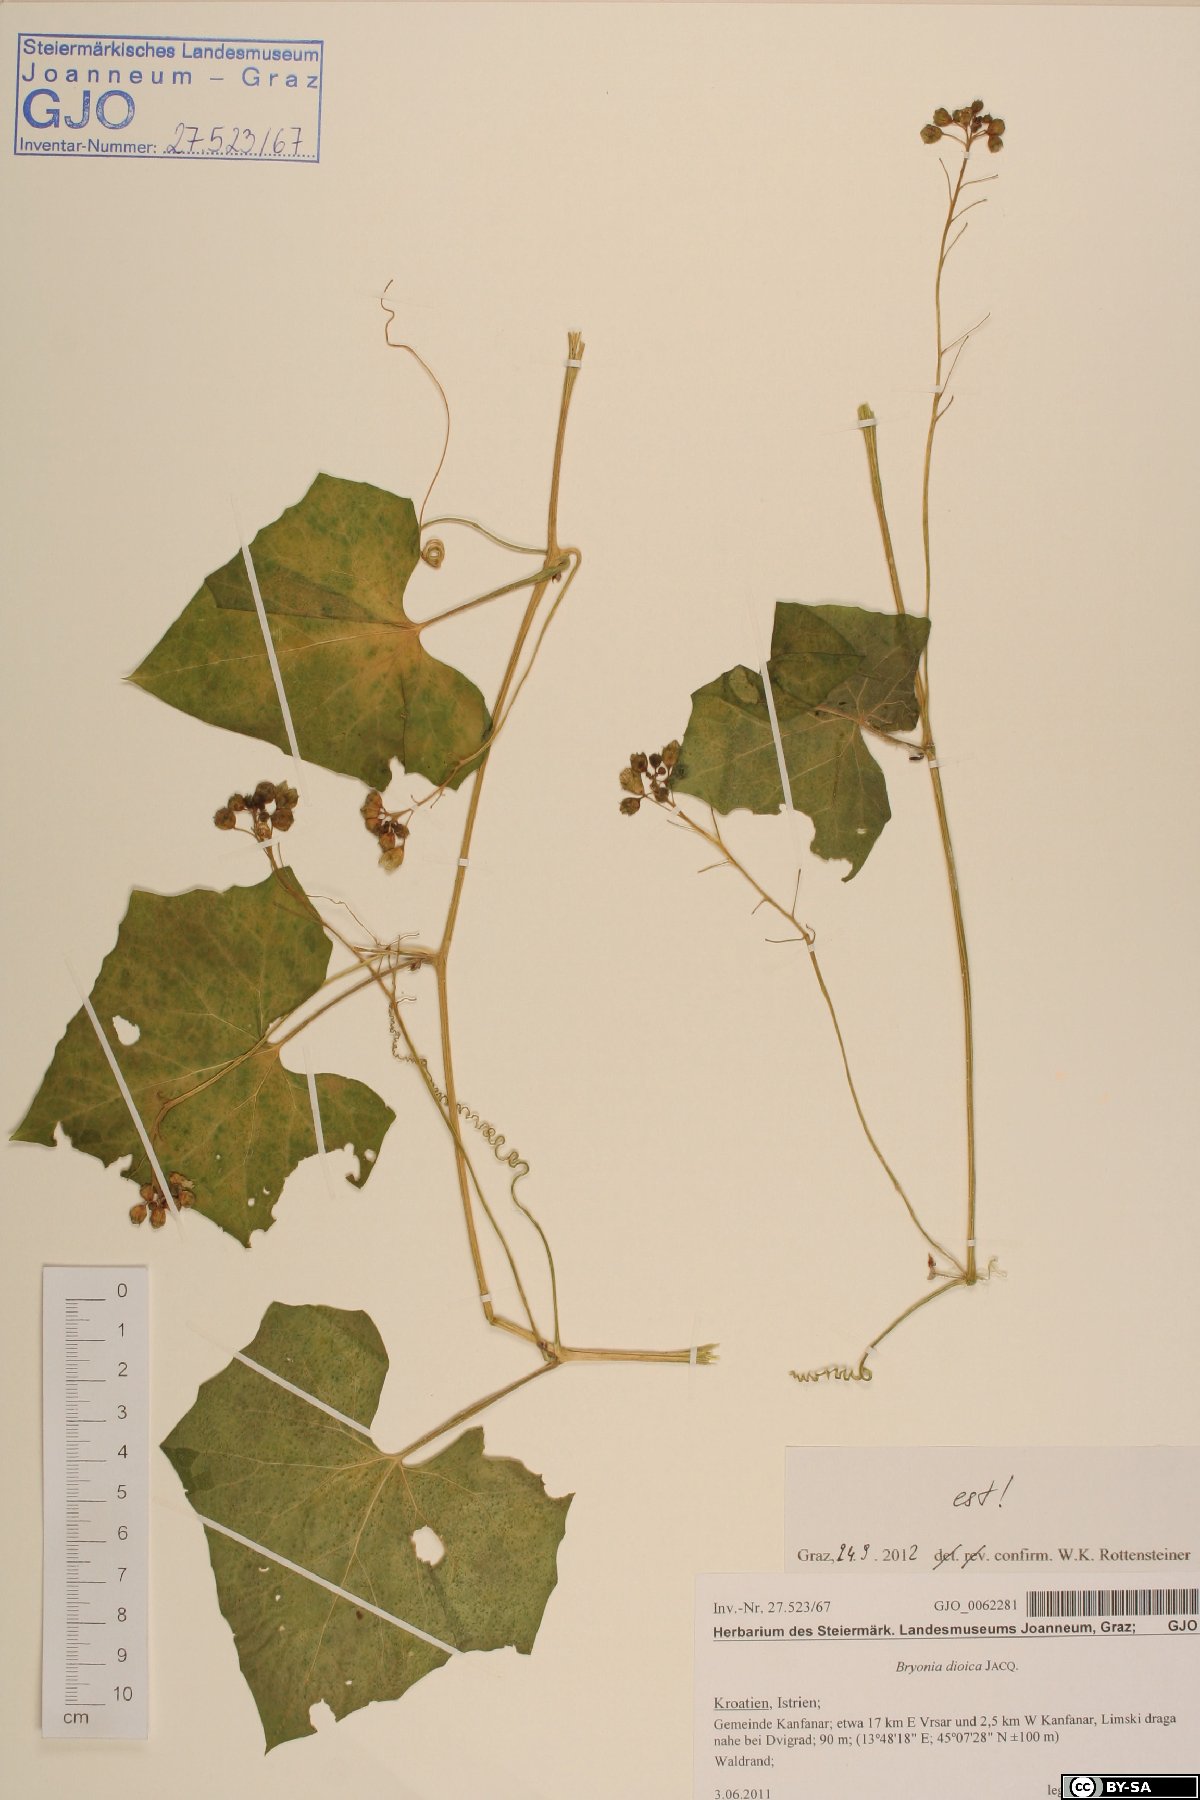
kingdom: Plantae
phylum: Tracheophyta
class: Magnoliopsida
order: Cucurbitales
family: Cucurbitaceae
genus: Bryonia
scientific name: Bryonia dioica
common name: White bryony
